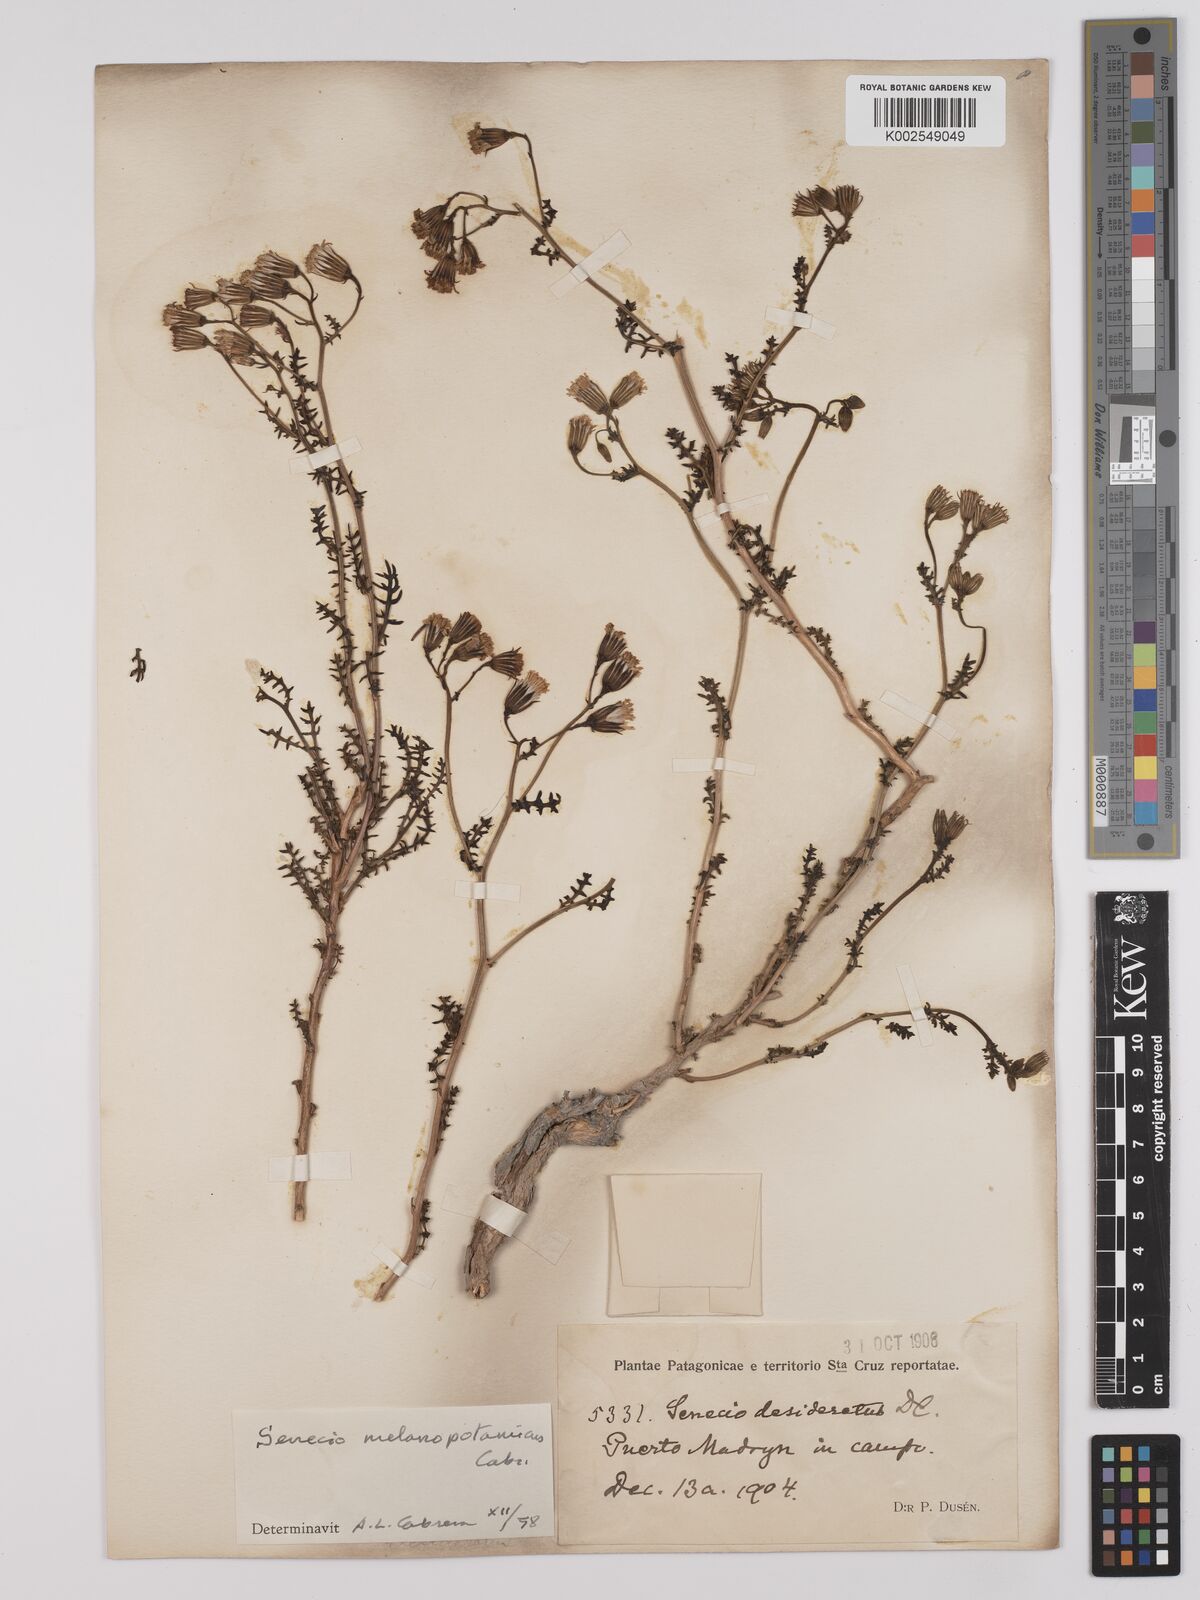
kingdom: Plantae
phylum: Tracheophyta
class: Magnoliopsida
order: Asterales
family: Asteraceae
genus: Senecio
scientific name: Senecio melanopotamicus
